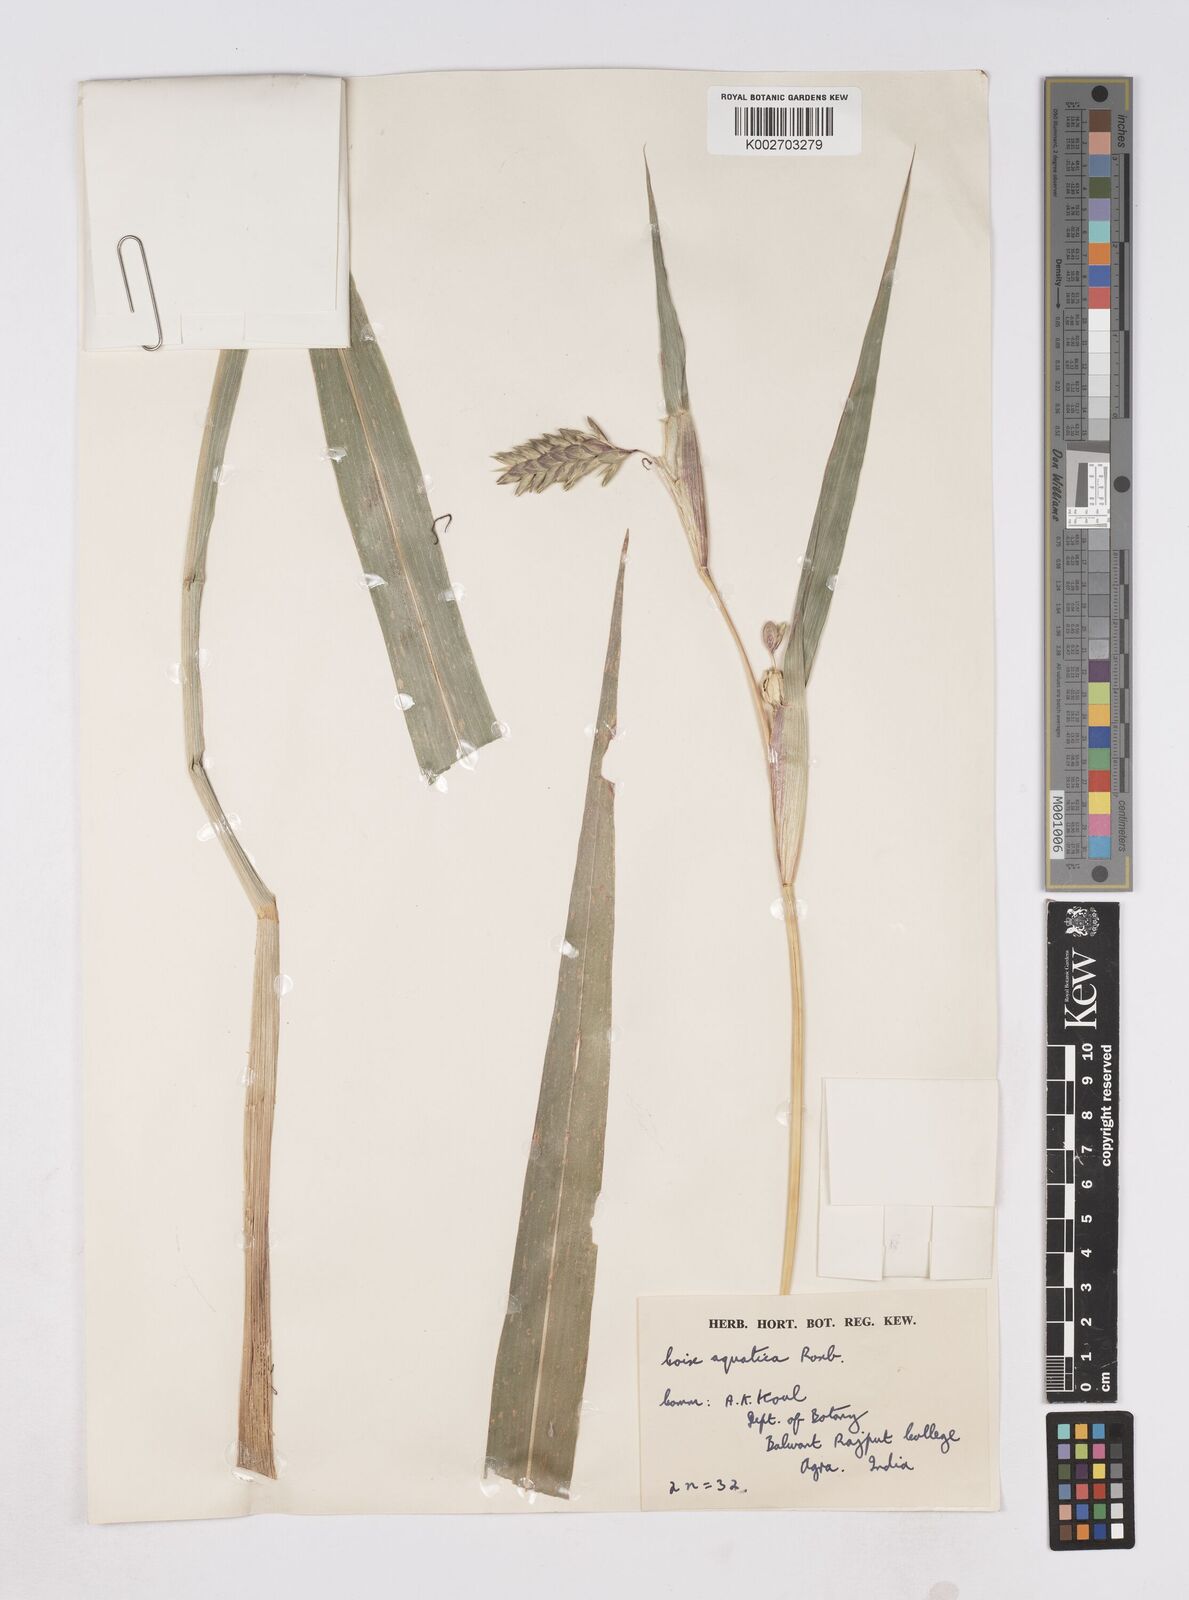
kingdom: Plantae
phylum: Tracheophyta
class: Liliopsida
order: Poales
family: Poaceae
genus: Coix
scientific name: Coix aquatica
